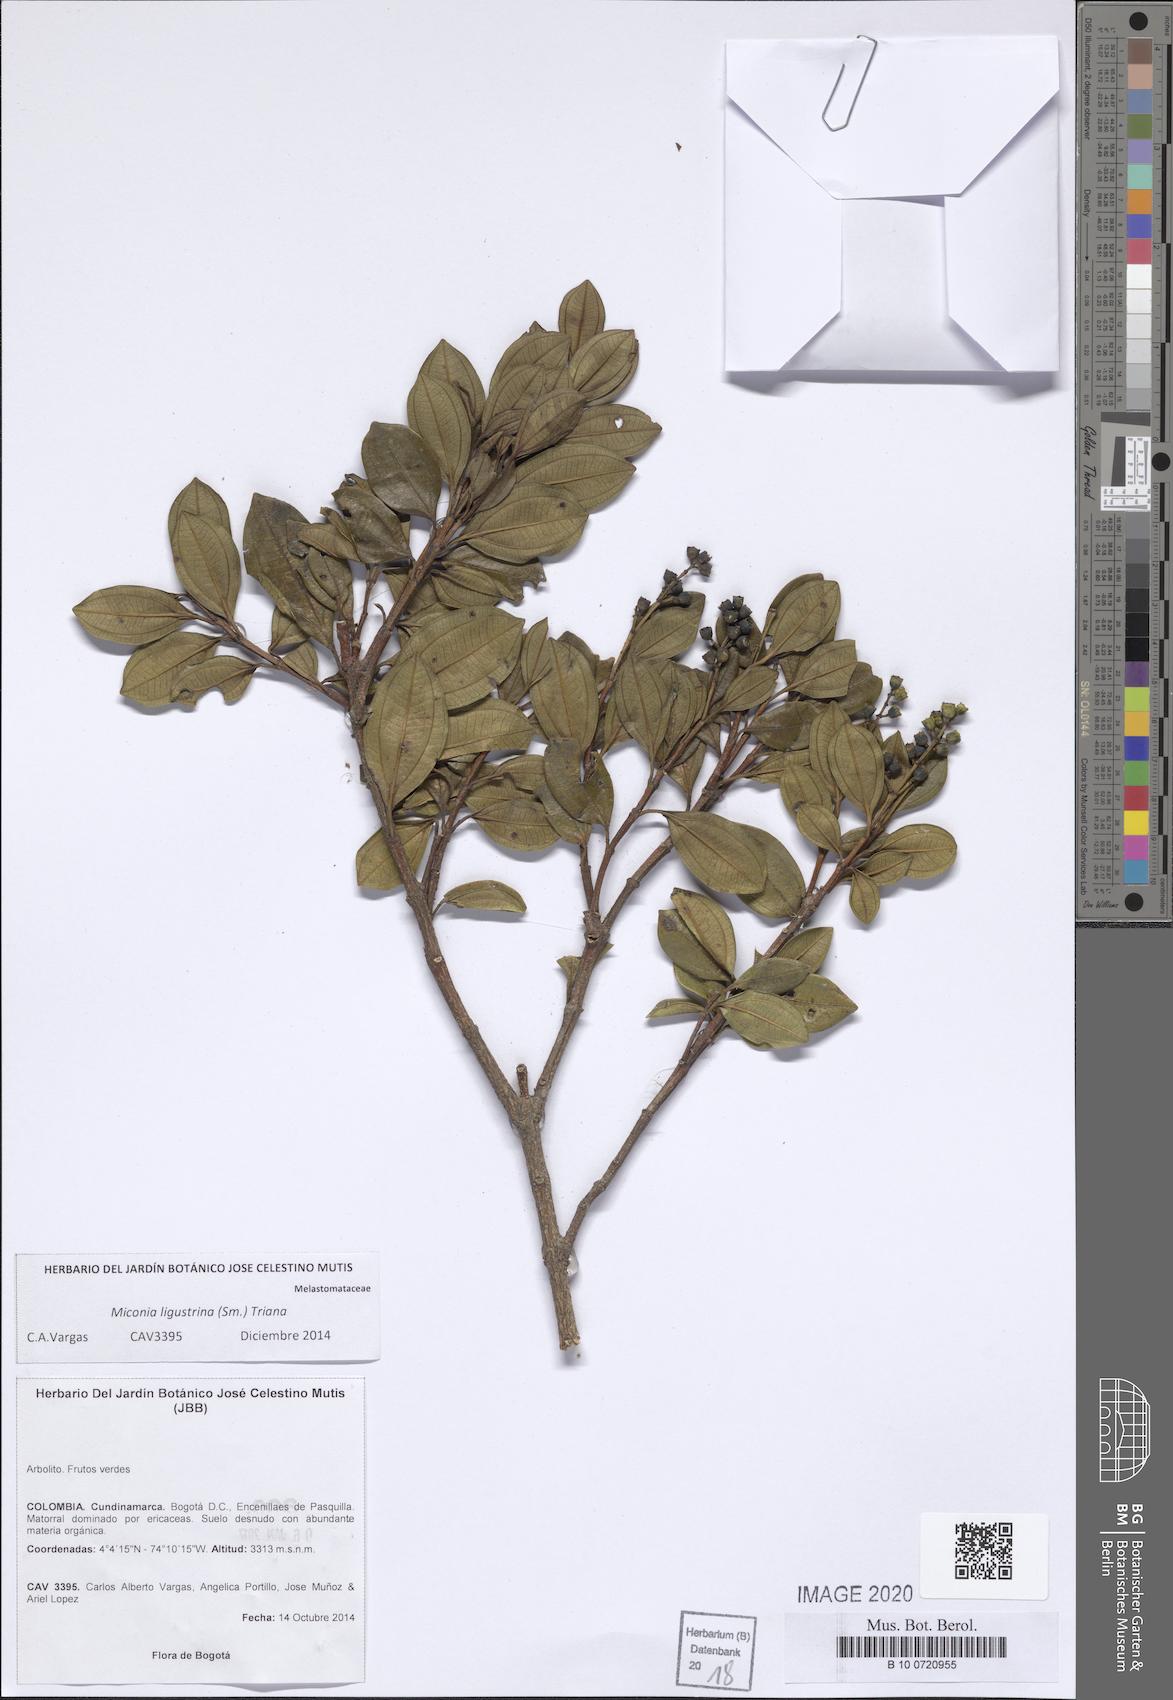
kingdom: Plantae
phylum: Tracheophyta
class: Magnoliopsida
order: Myrtales
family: Melastomataceae
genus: Miconia
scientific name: Miconia ligustrina
